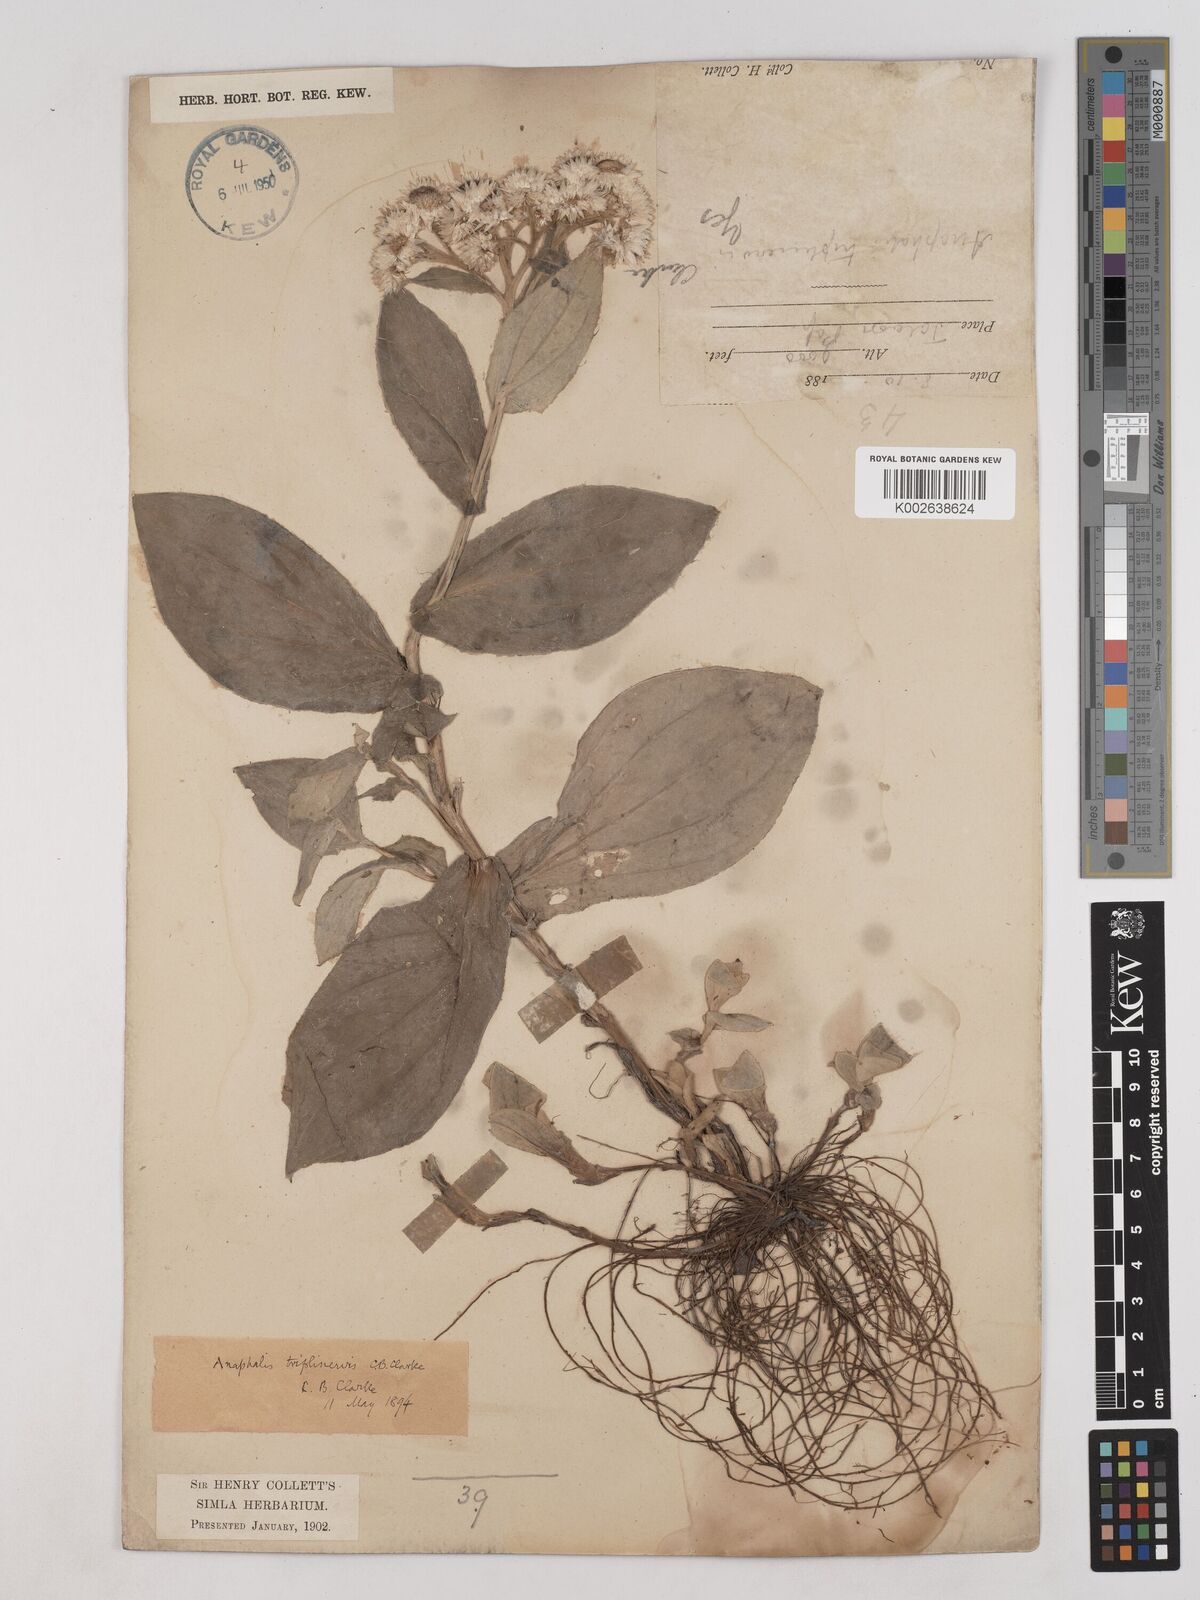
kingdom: Plantae
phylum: Tracheophyta
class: Magnoliopsida
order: Asterales
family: Asteraceae
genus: Anaphalis
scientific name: Anaphalis triplinervis
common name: Pearly everlasting
